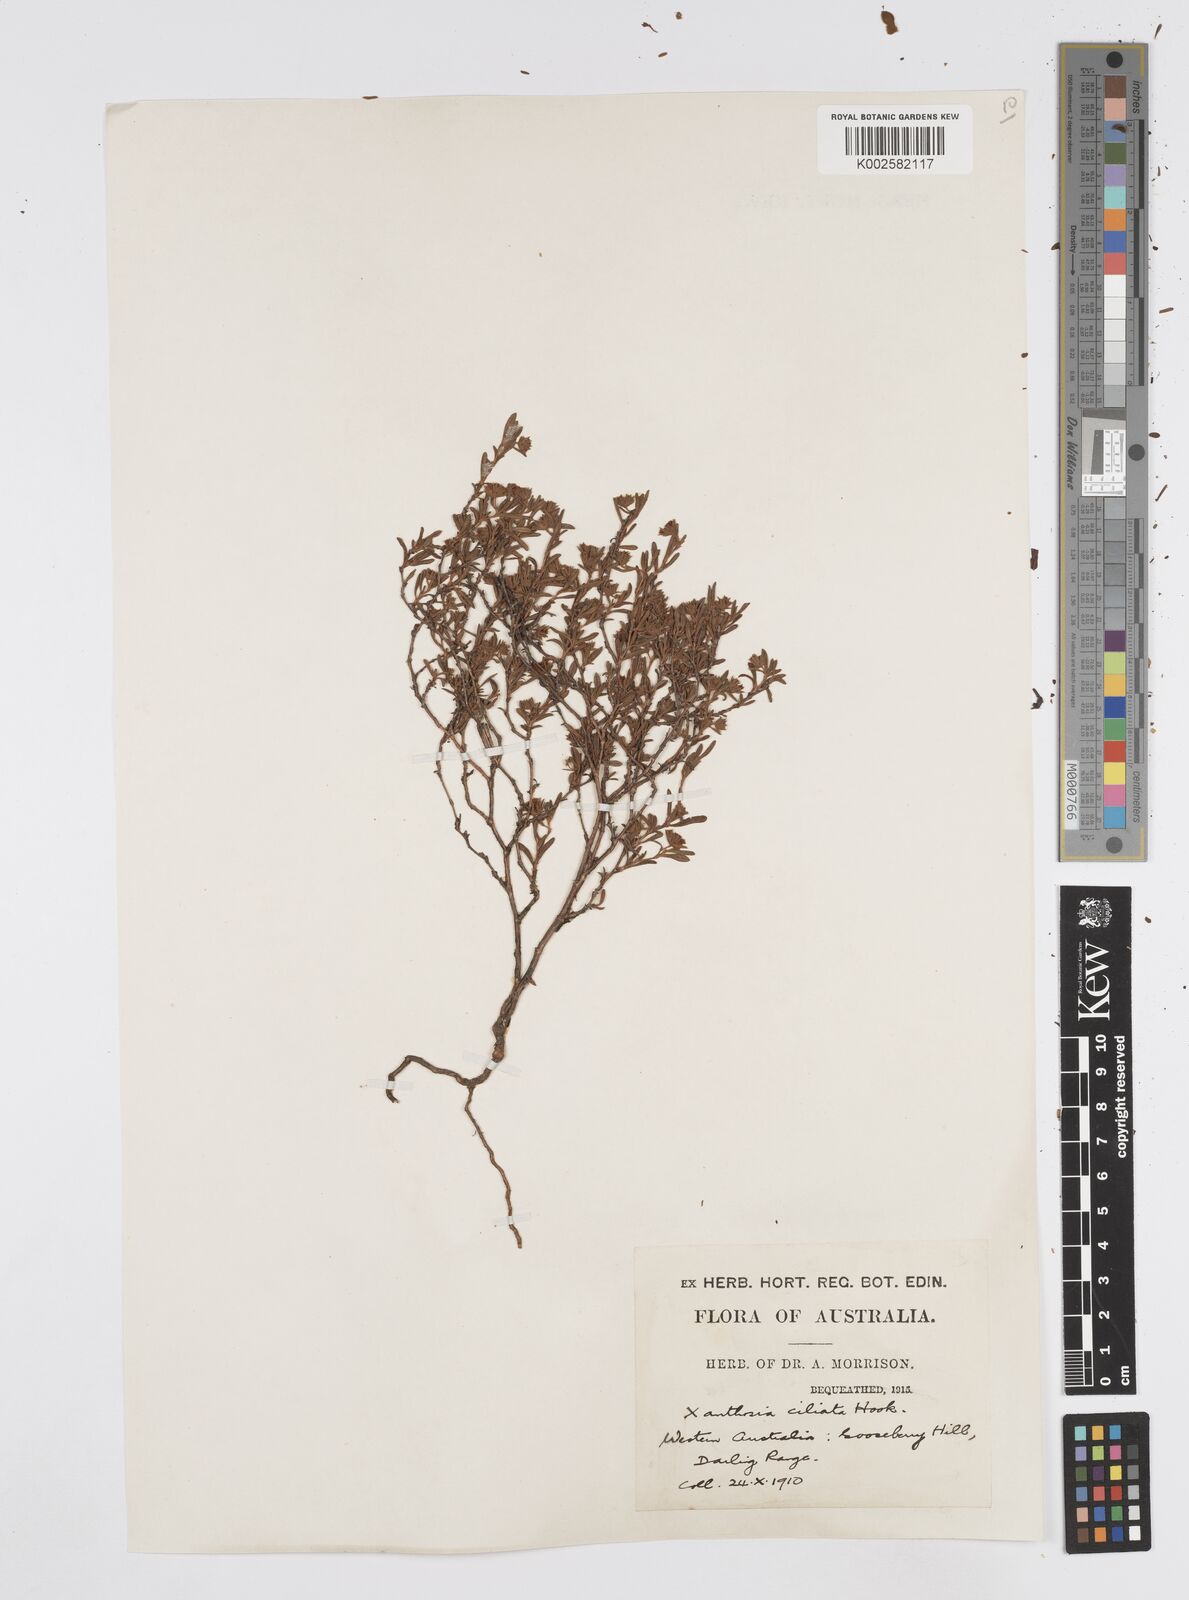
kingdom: Plantae
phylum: Tracheophyta
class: Magnoliopsida
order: Apiales
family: Apiaceae
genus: Xanthosia
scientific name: Xanthosia ciliata
